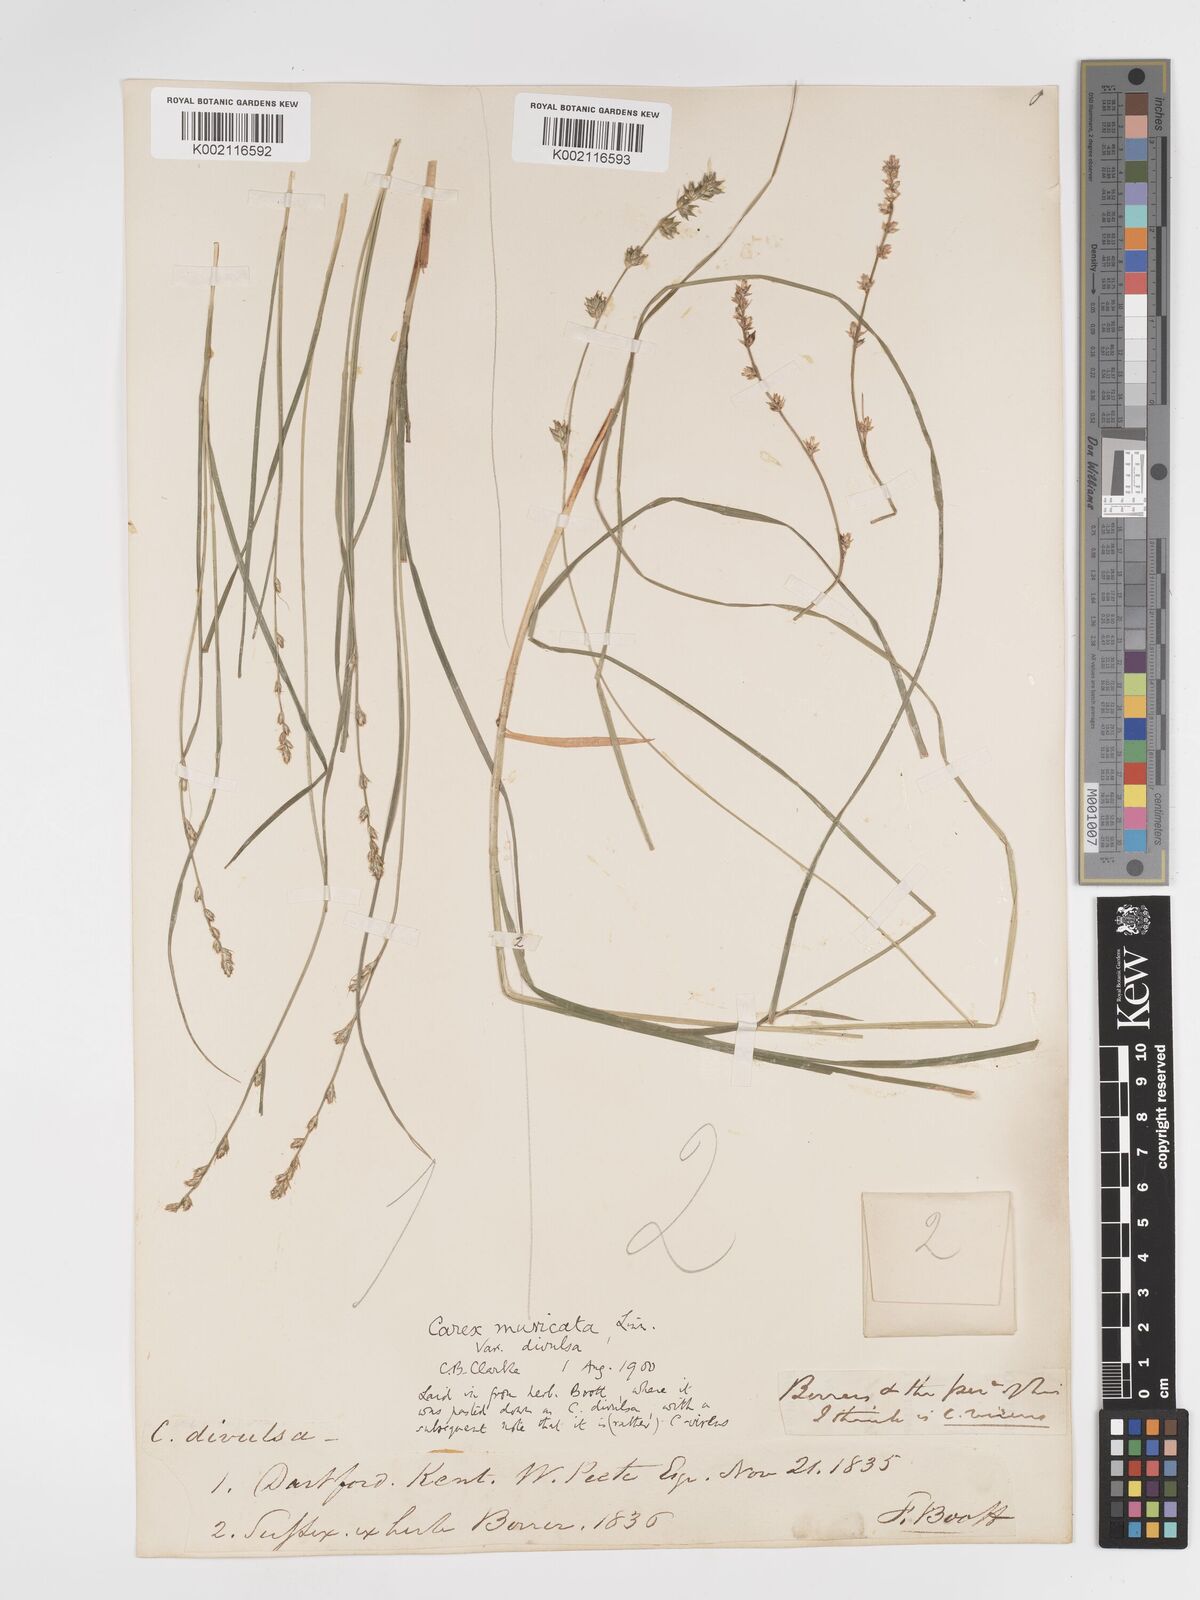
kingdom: Plantae
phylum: Tracheophyta
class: Liliopsida
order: Poales
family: Cyperaceae
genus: Carex
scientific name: Carex divulsa
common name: Grassland sedge
